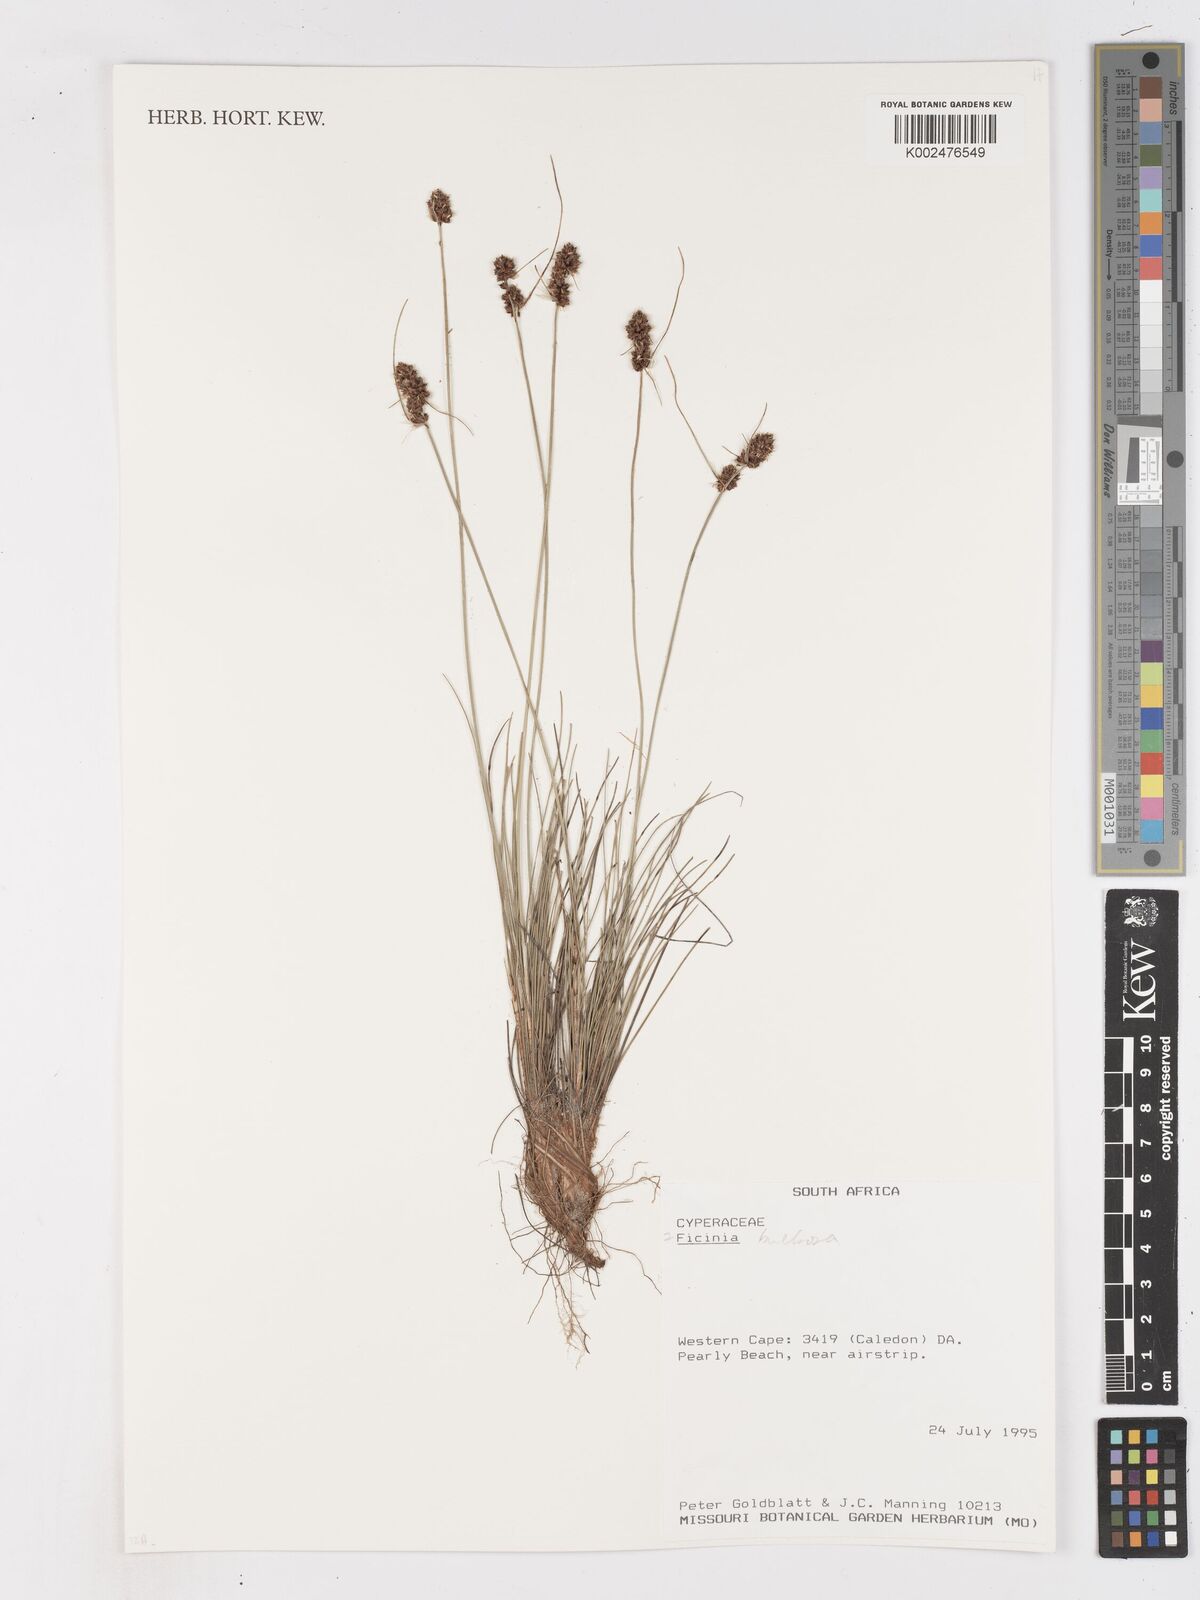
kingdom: Plantae
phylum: Tracheophyta
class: Liliopsida
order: Poales
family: Cyperaceae
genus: Ficinia
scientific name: Ficinia
